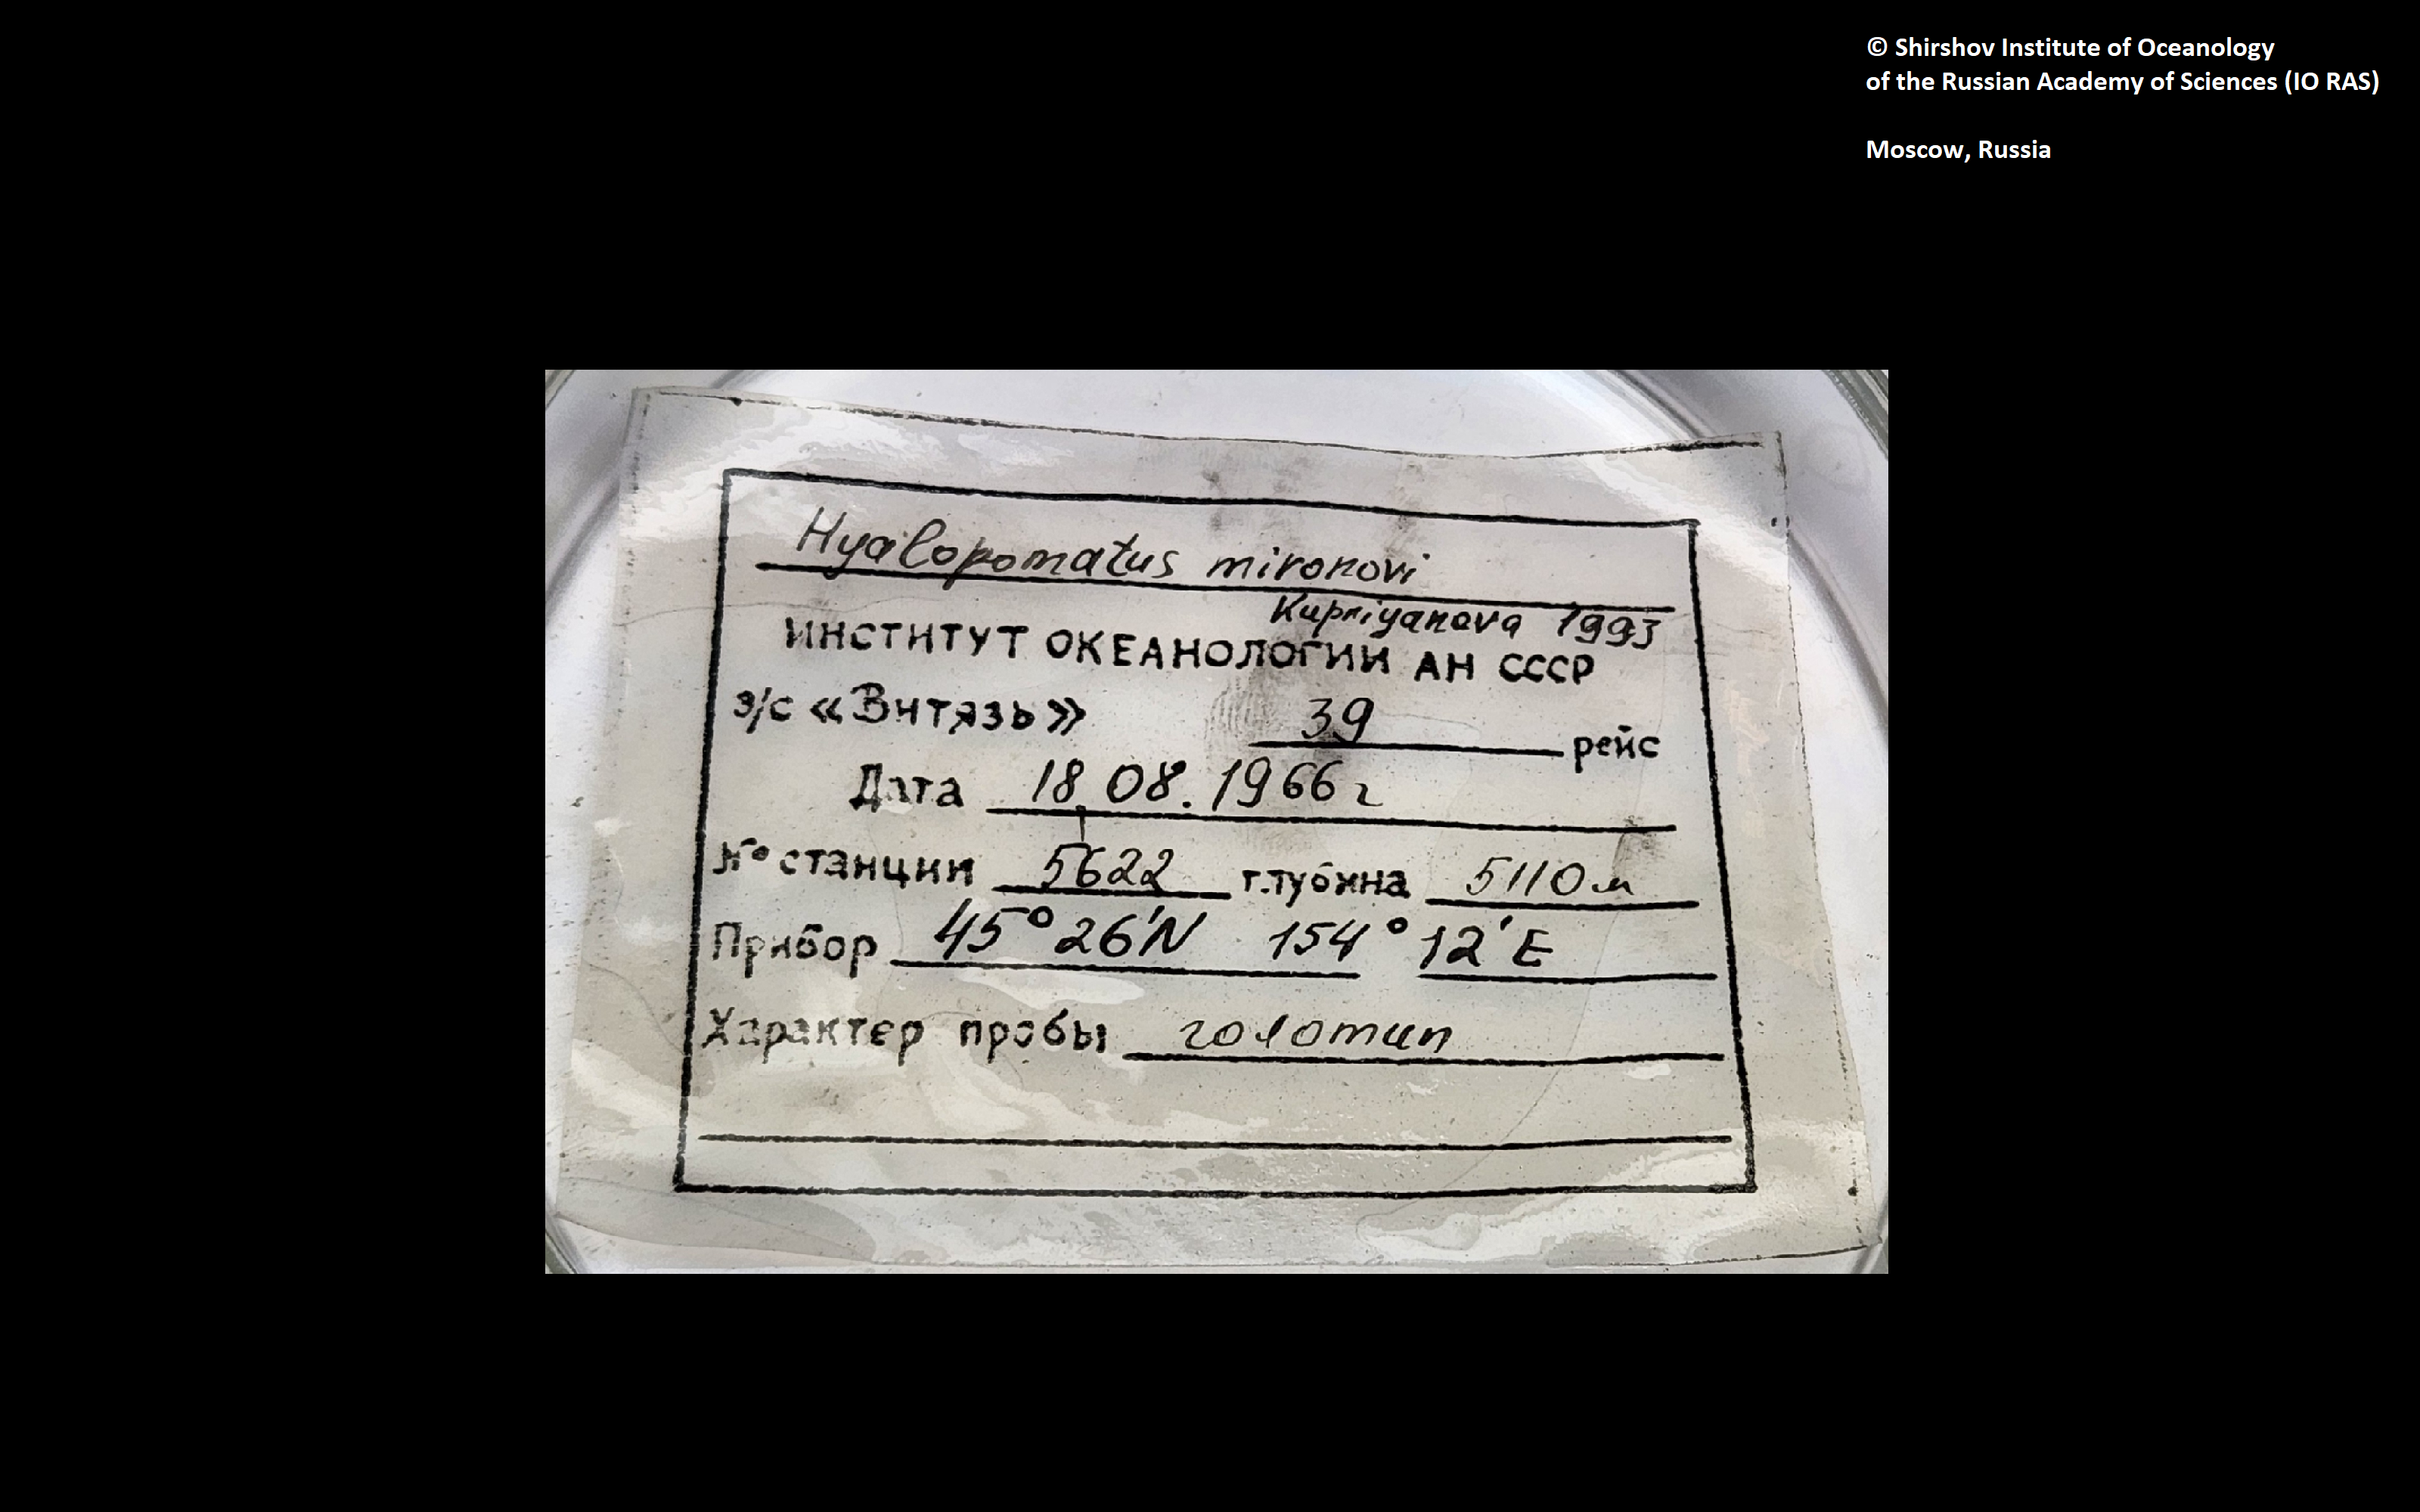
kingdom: Animalia
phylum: Annelida
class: Polychaeta
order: Sabellida
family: Serpulidae
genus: Hyalopomatus
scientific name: Hyalopomatus mironovi
